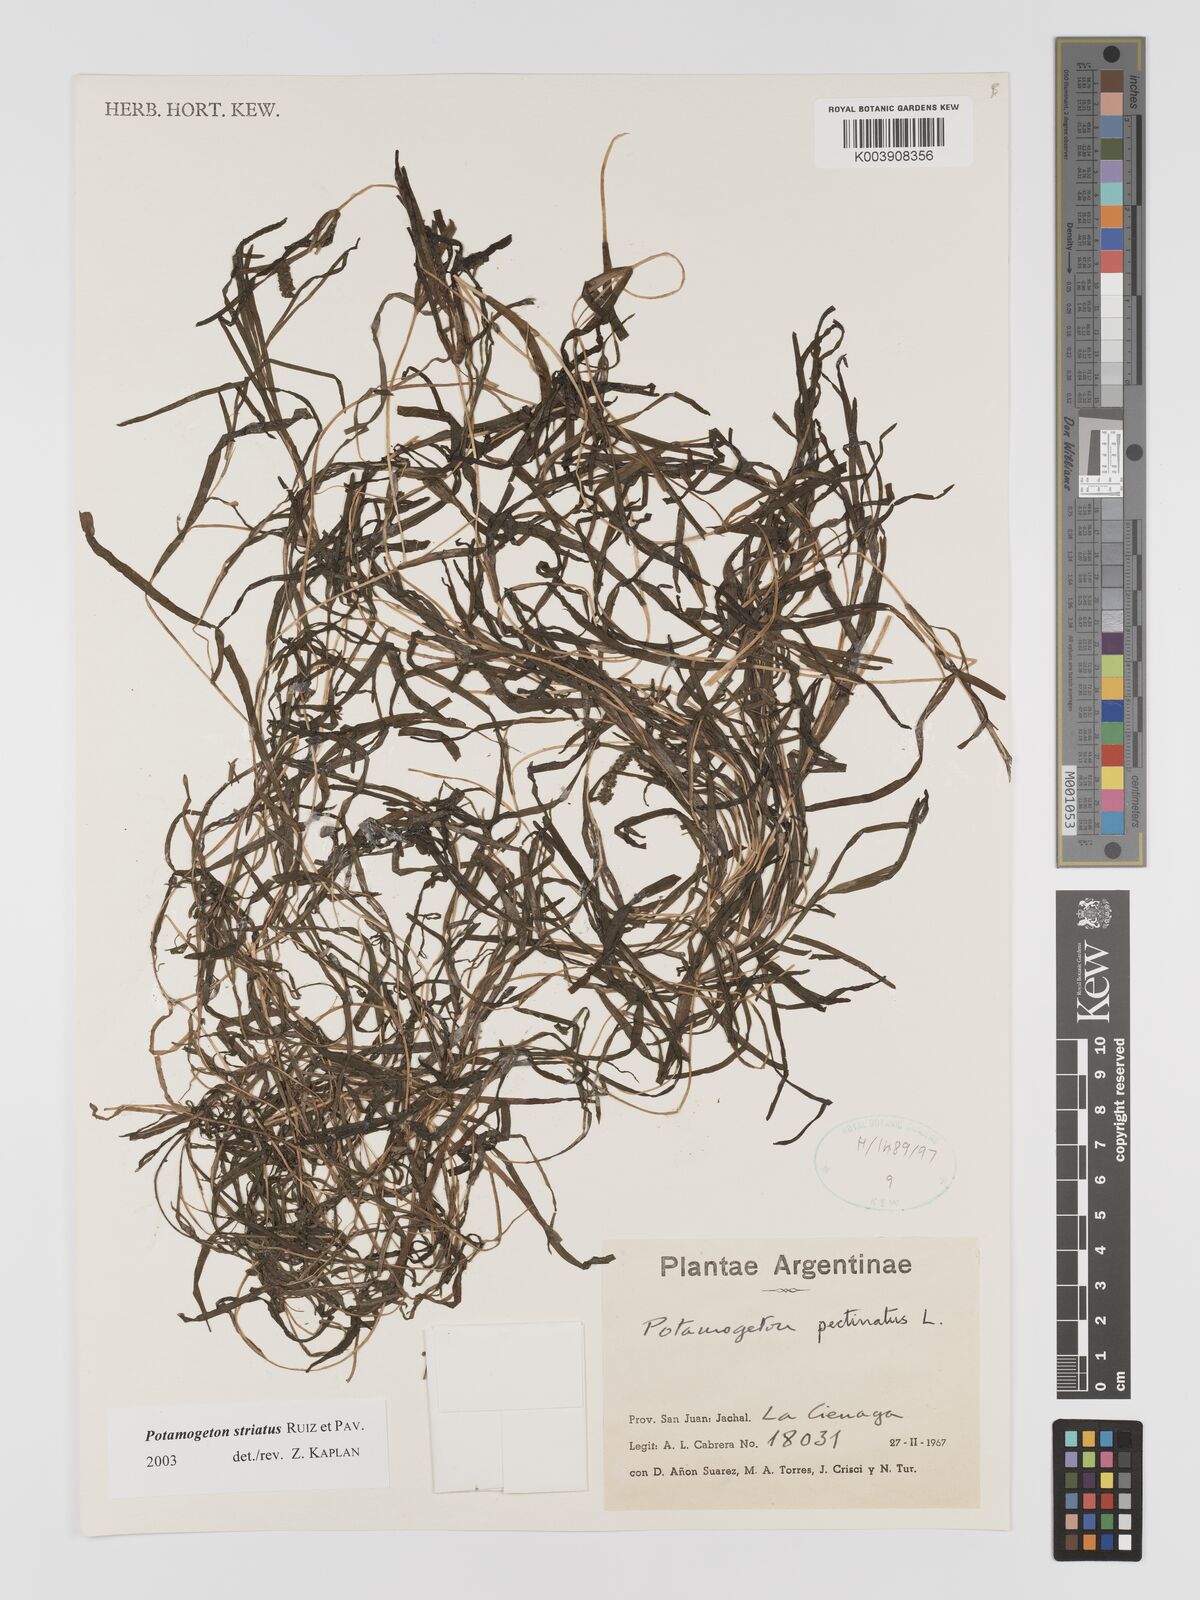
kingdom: Plantae
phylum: Tracheophyta
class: Liliopsida
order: Alismatales
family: Potamogetonaceae
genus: Stuckenia
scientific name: Stuckenia striata
